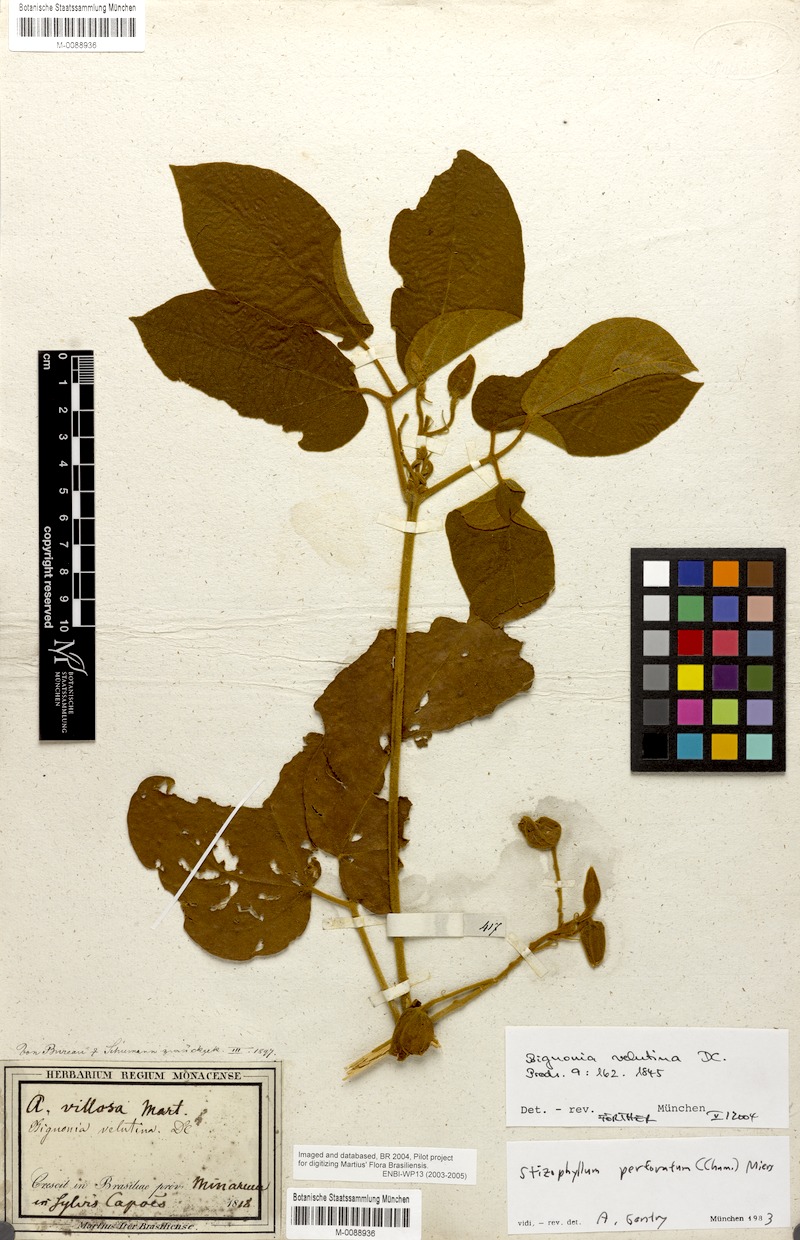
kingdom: Plantae
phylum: Tracheophyta
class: Magnoliopsida
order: Lamiales
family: Bignoniaceae
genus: Stizophyllum
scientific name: Stizophyllum perforatum
